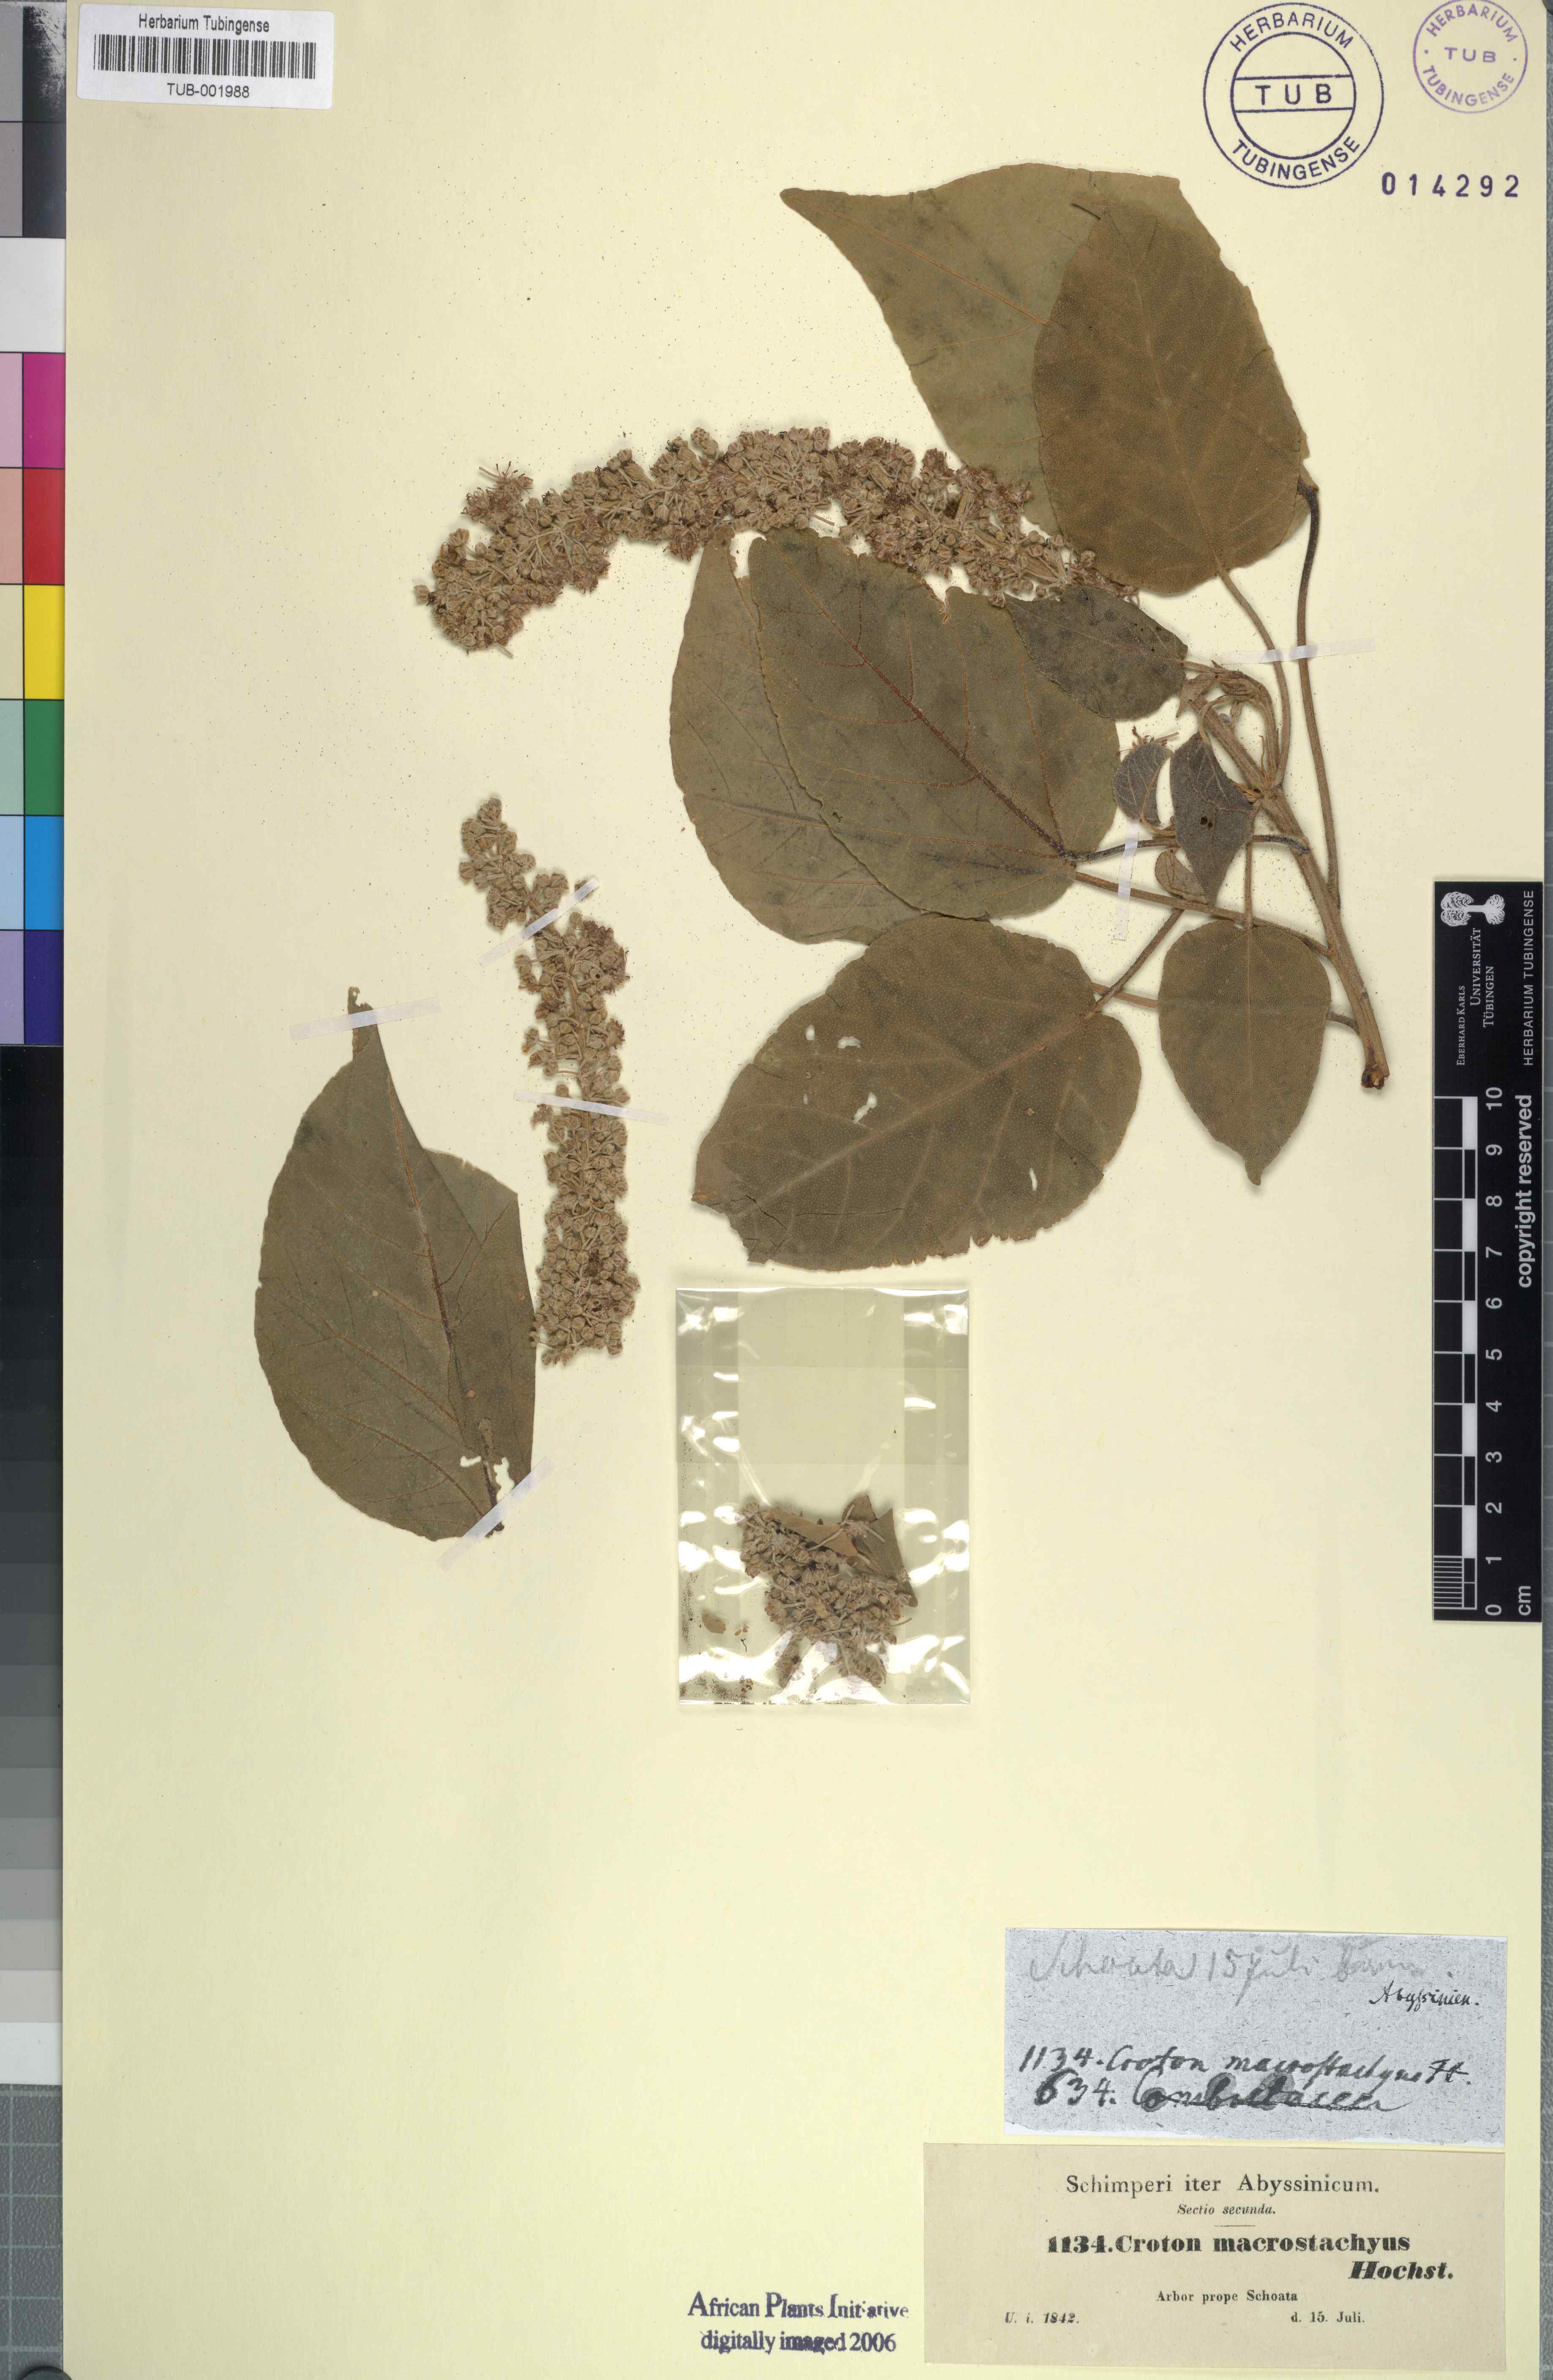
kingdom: Plantae
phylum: Tracheophyta
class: Magnoliopsida
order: Malpighiales
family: Euphorbiaceae
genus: Croton
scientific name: Croton macrostachys
